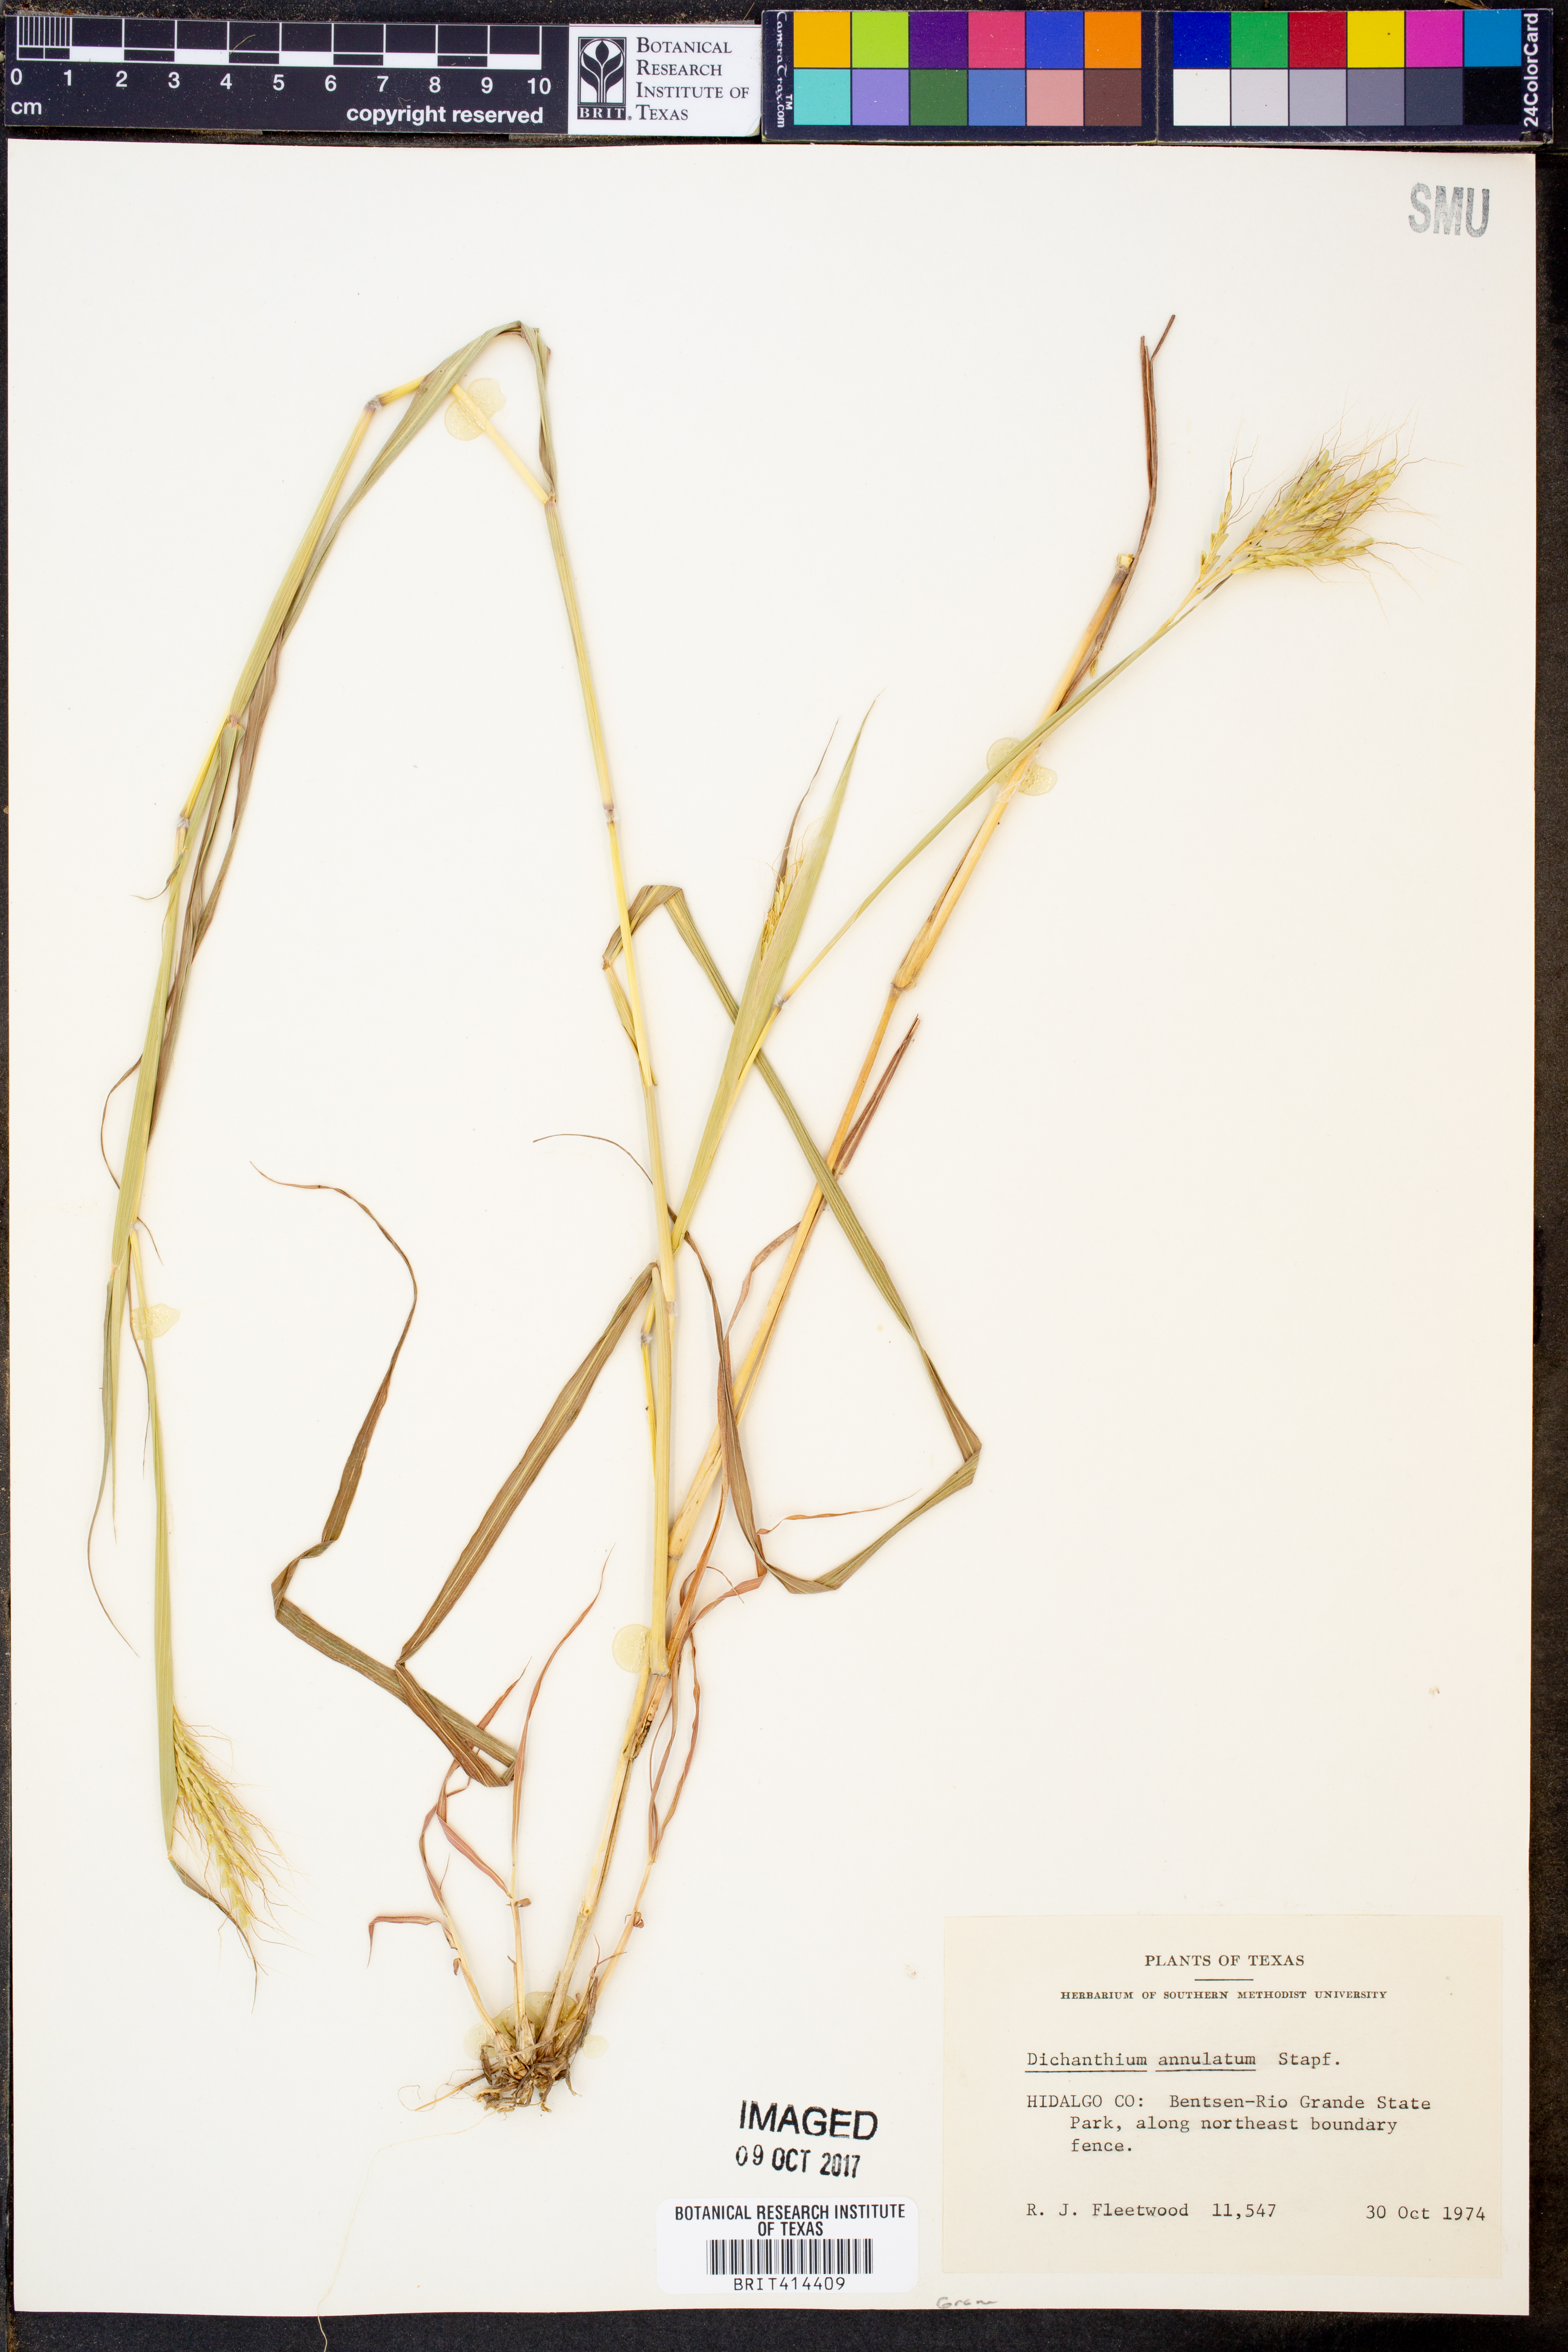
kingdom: Plantae
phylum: Tracheophyta
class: Liliopsida
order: Poales
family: Poaceae
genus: Dichanthium
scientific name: Dichanthium annulatum
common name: Kleberg's bluestem
